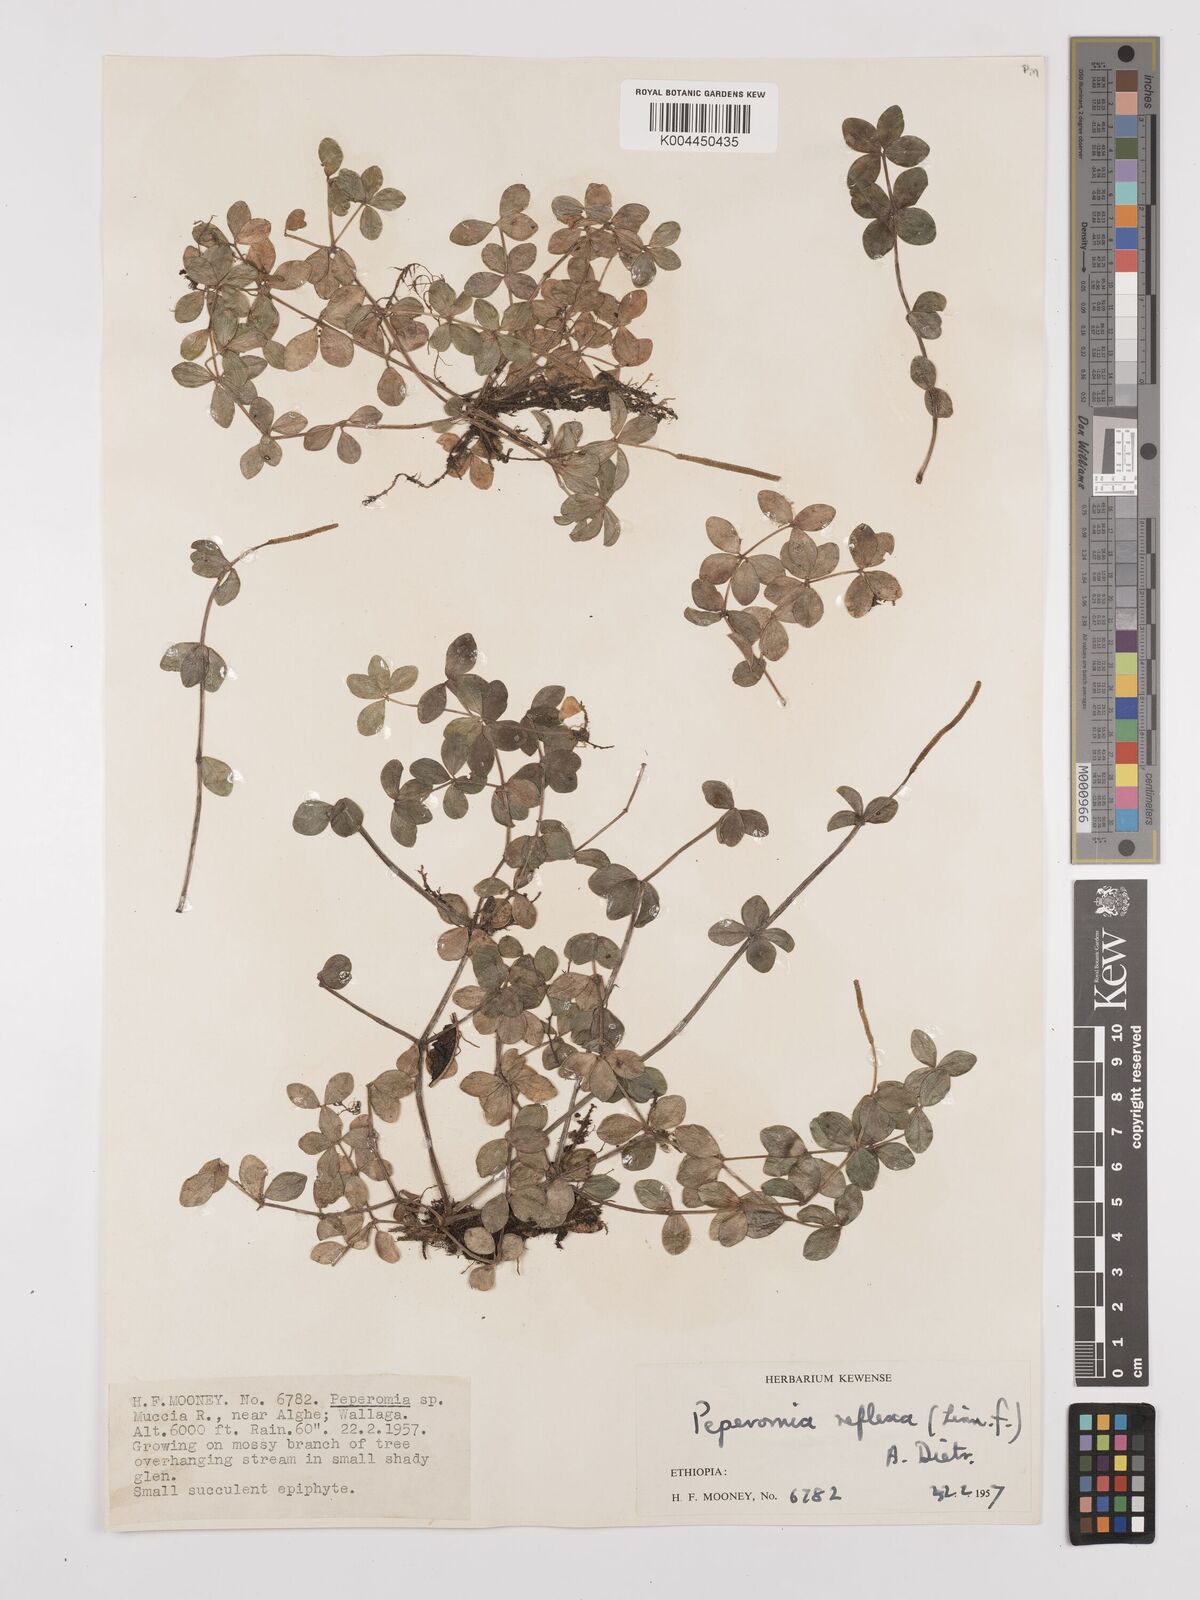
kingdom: Plantae
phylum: Tracheophyta
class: Magnoliopsida
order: Piperales
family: Piperaceae
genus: Peperomia
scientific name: Peperomia tetraphylla
